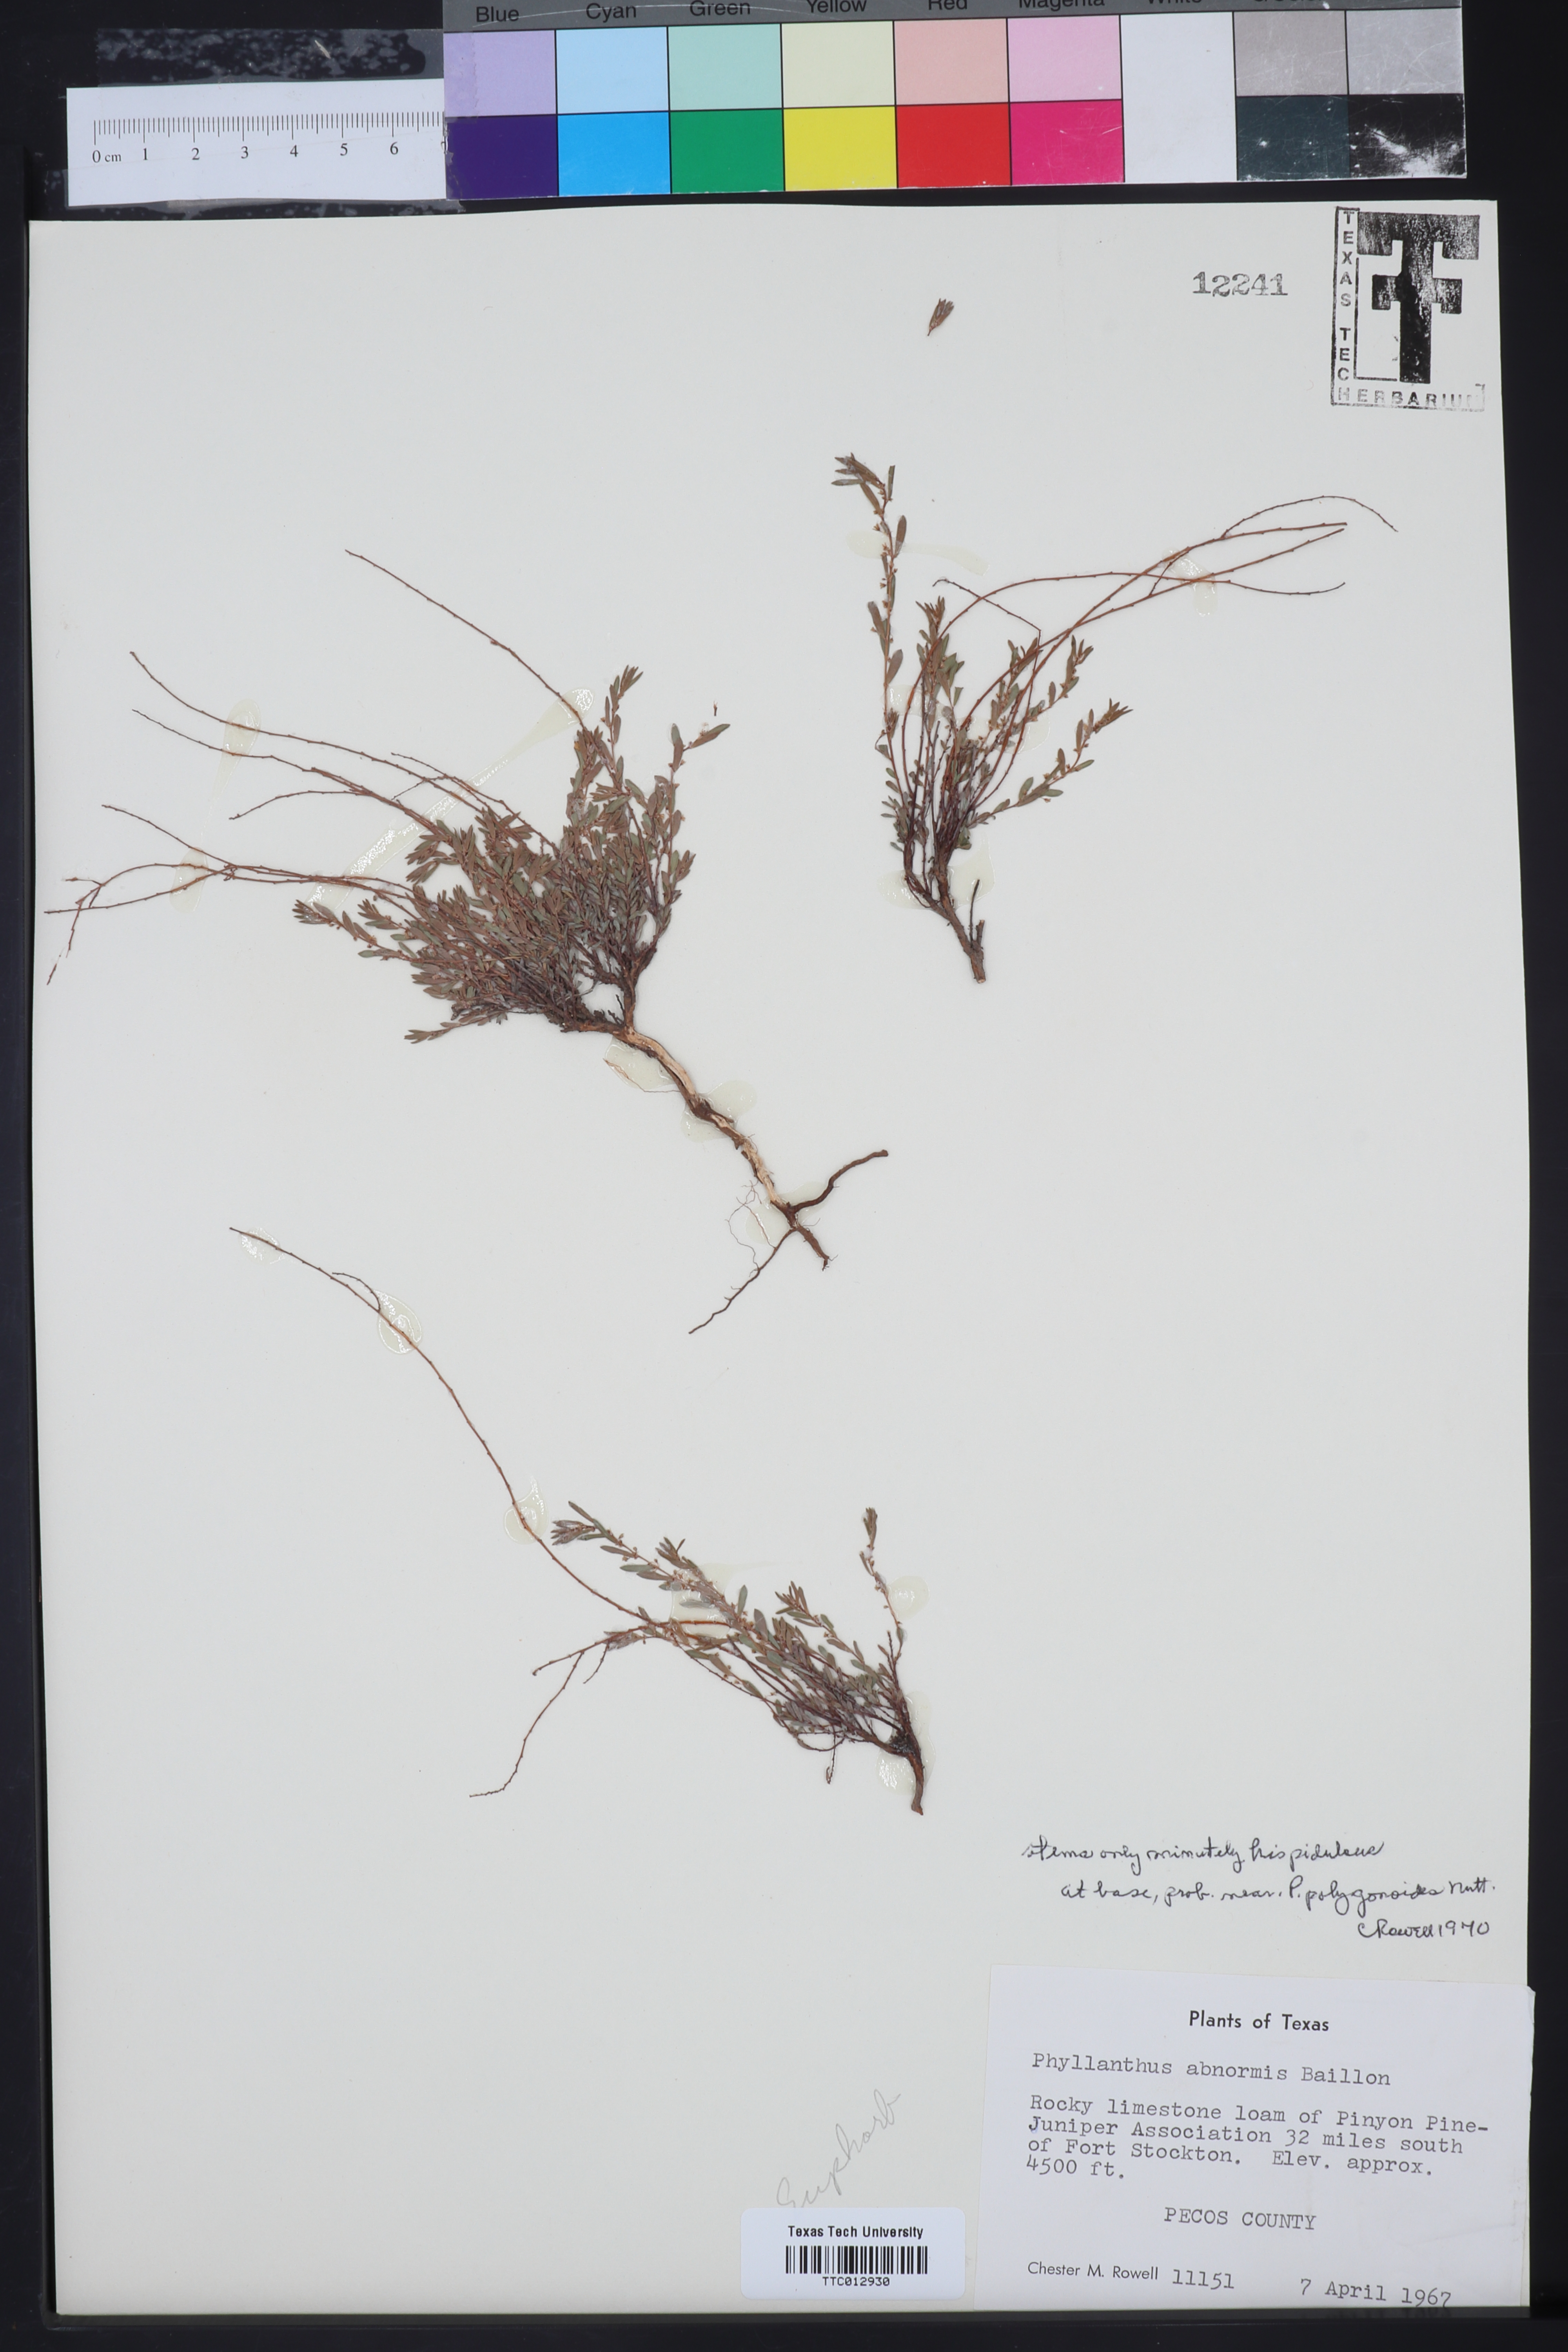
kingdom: Plantae
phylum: Tracheophyta
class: Magnoliopsida
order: Malpighiales
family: Phyllanthaceae
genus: Phyllanthus
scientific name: Phyllanthus abnormis
